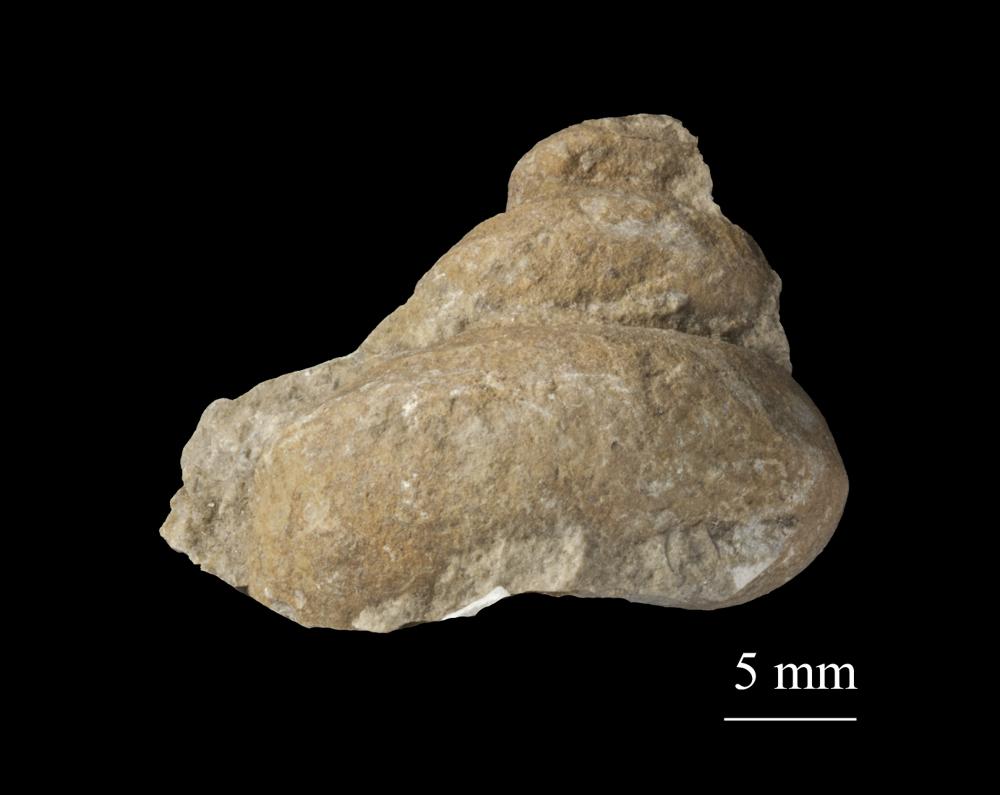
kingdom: Animalia
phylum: Mollusca
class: Gastropoda
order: Neogastropoda
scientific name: Neogastropoda
